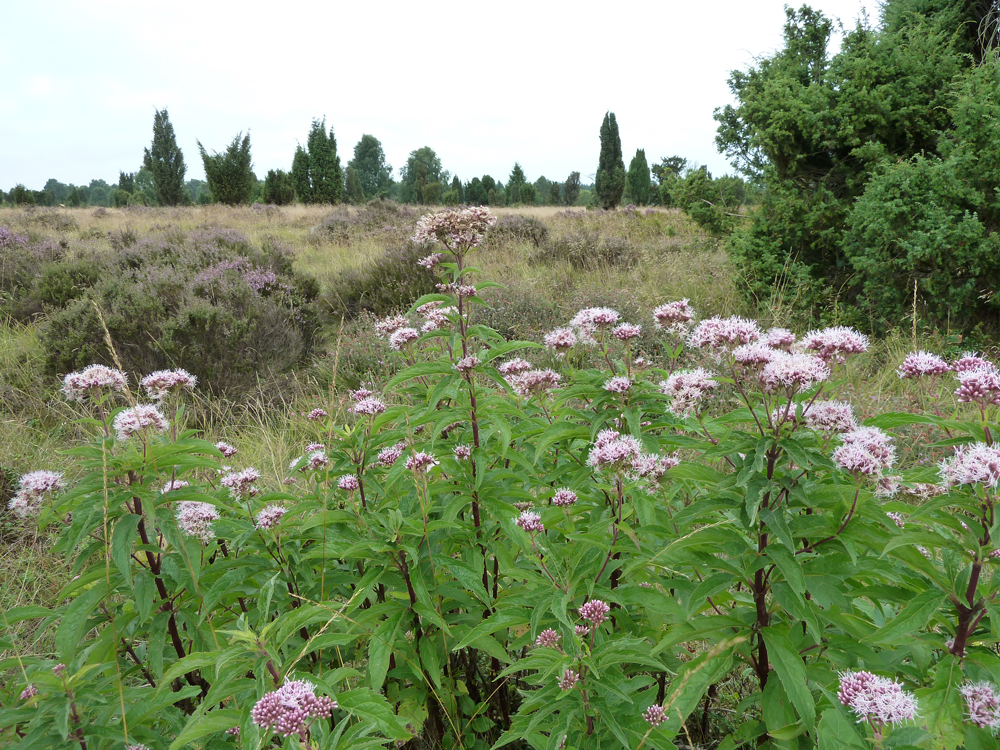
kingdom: Plantae
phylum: Tracheophyta
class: Magnoliopsida
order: Asterales
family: Asteraceae
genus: Eupatorium
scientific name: Eupatorium cannabinum
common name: Hemp-agrimony
